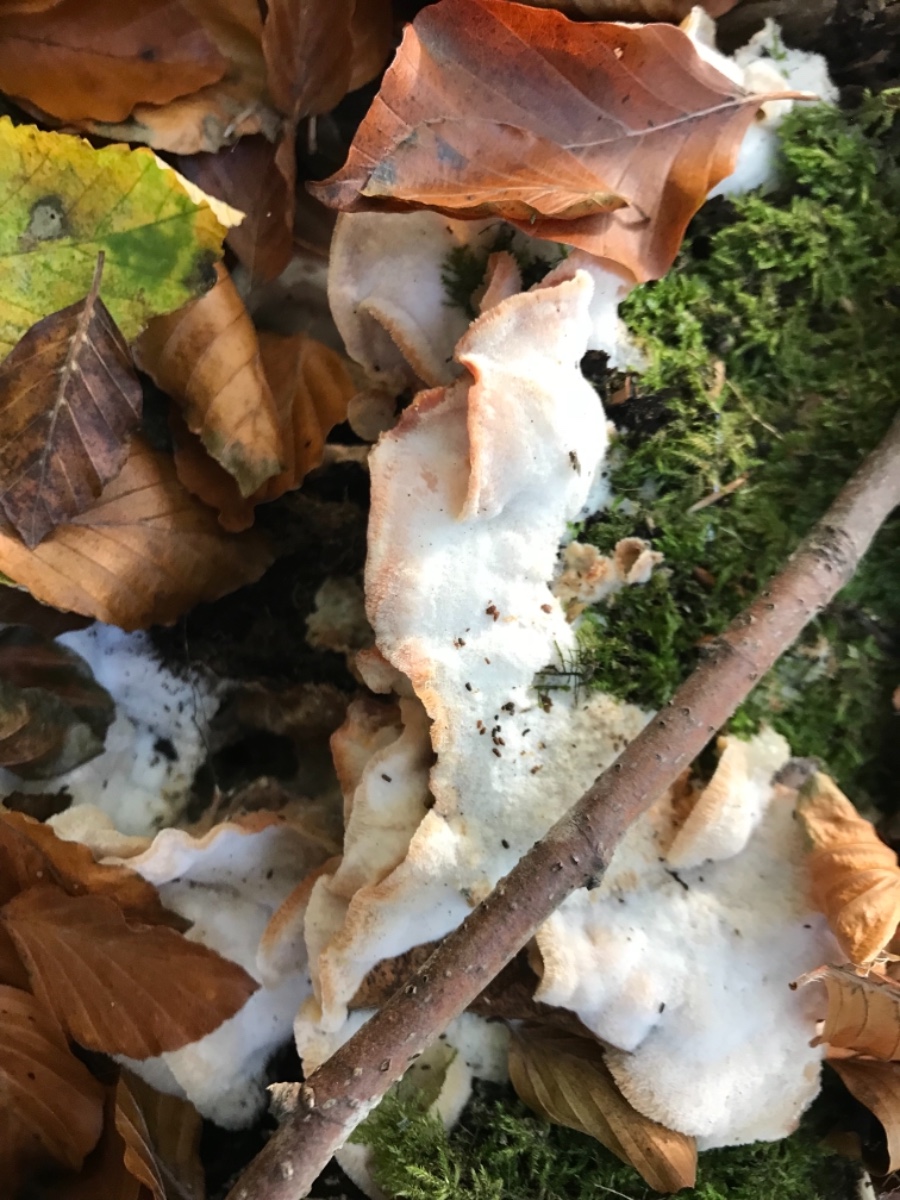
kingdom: Fungi
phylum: Basidiomycota
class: Agaricomycetes
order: Polyporales
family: Meruliaceae
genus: Phlebia
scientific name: Phlebia tremellosa
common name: bævrende åresvamp
